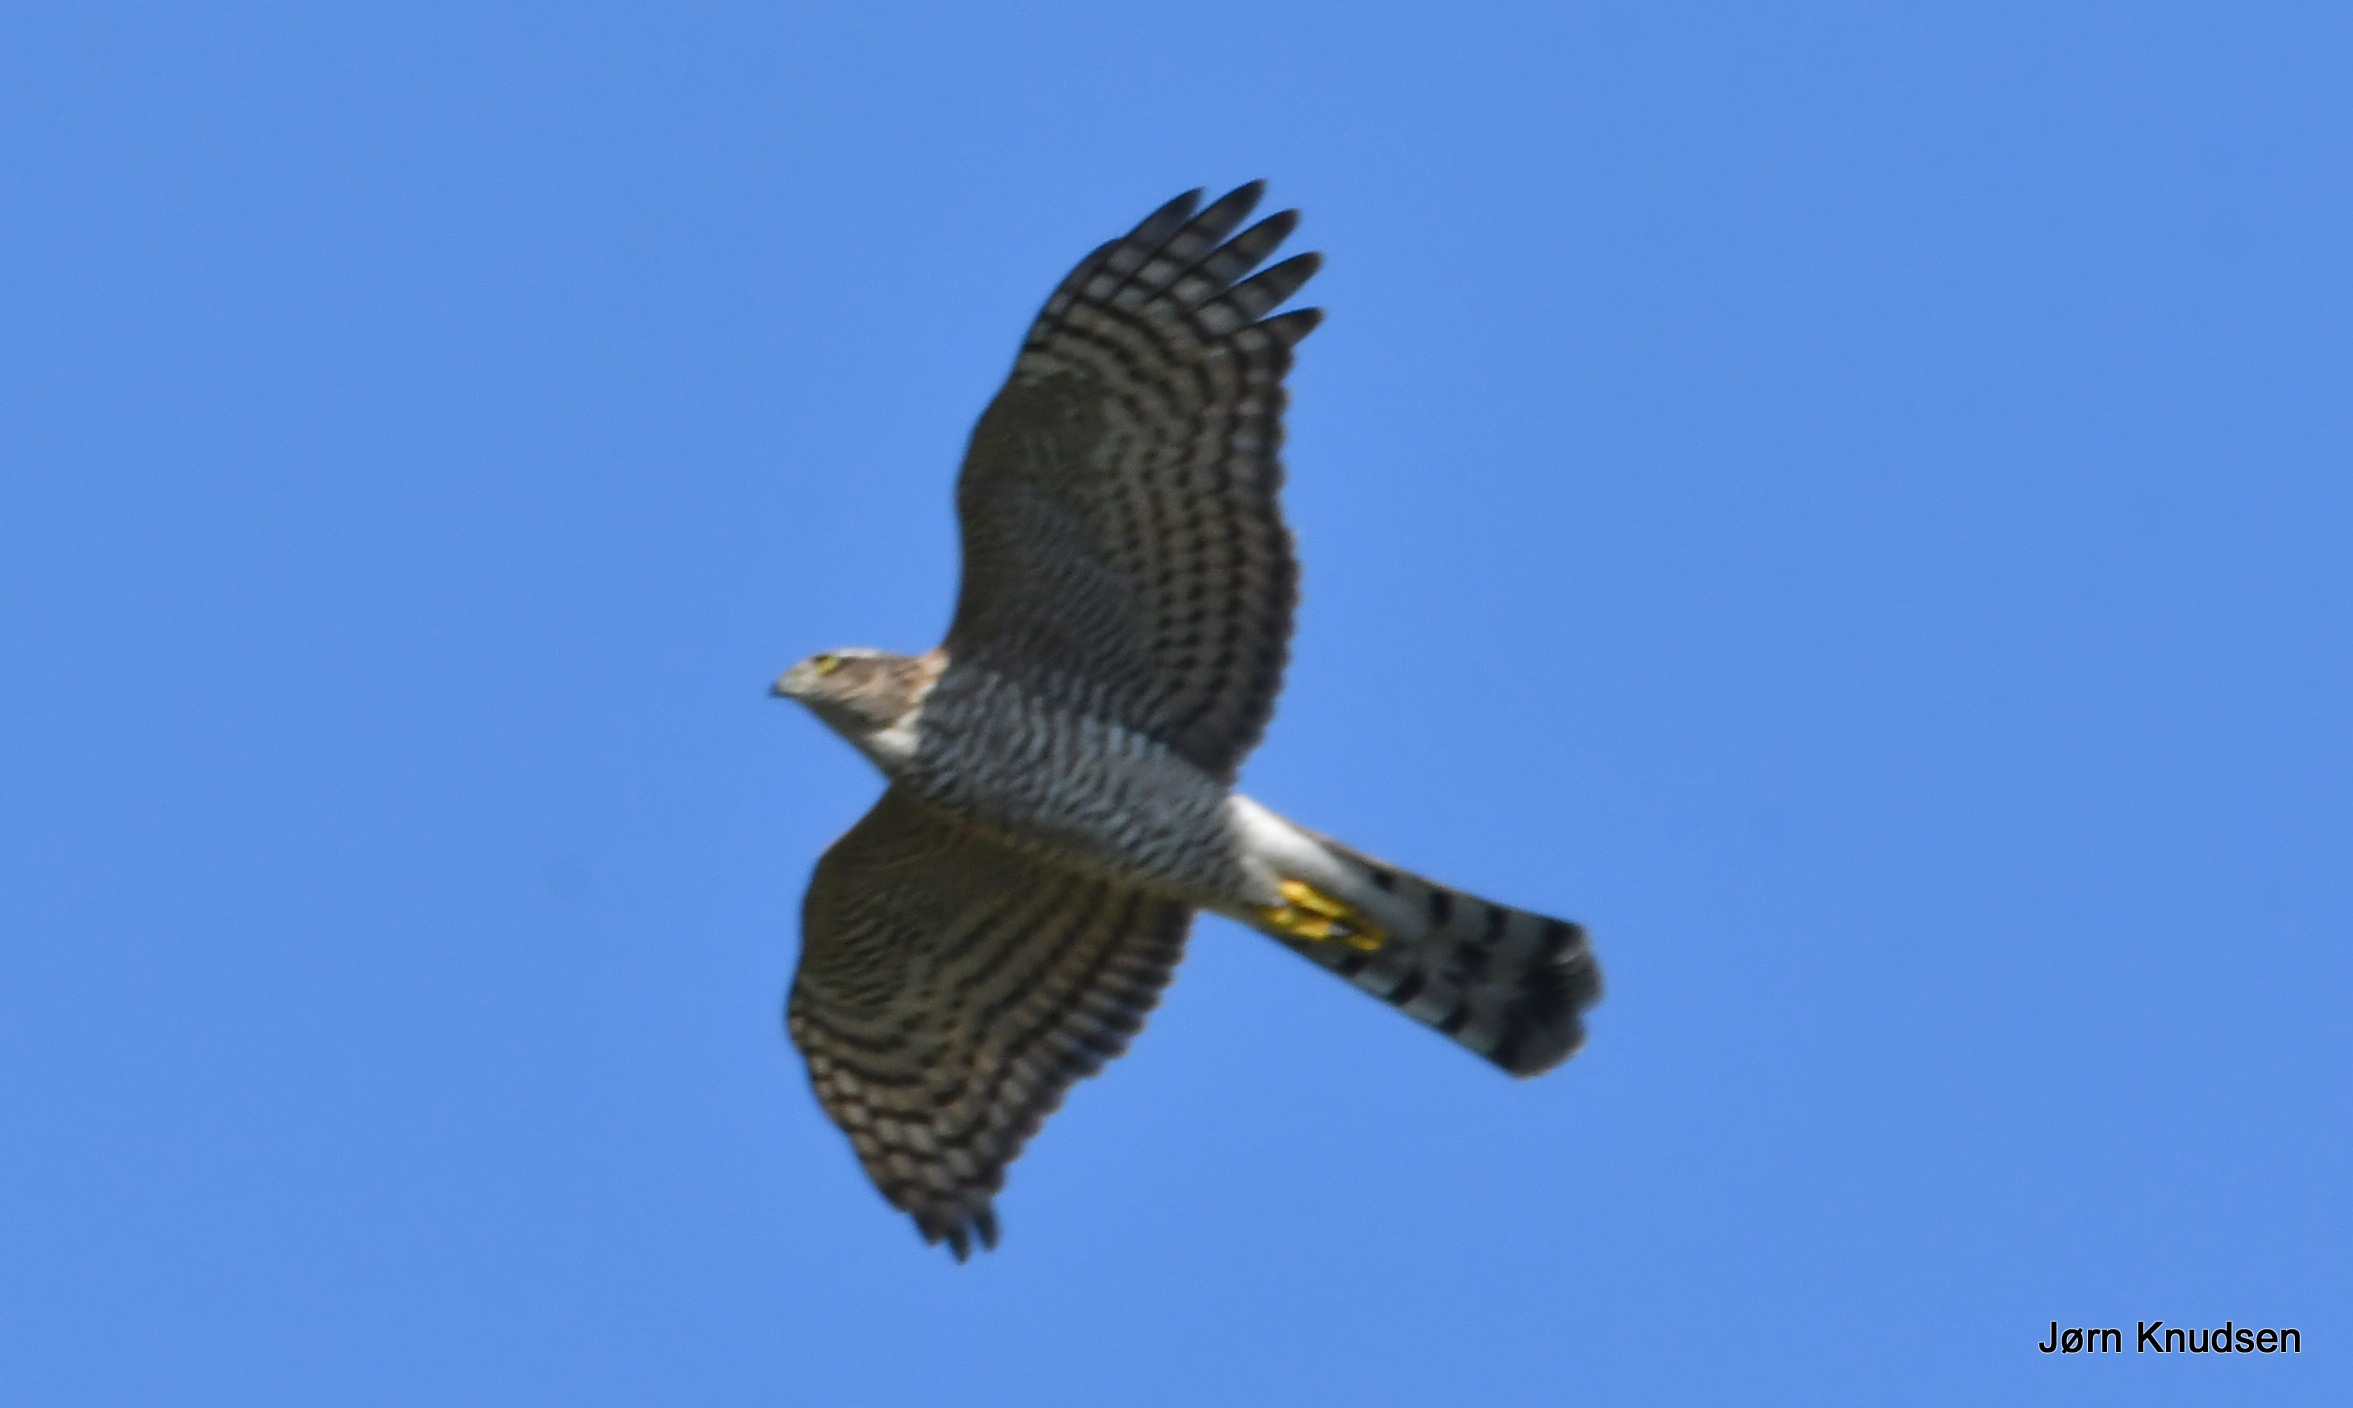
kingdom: Animalia
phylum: Chordata
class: Aves
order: Accipitriformes
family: Accipitridae
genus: Accipiter
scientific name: Accipiter nisus
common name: Spurvehøg
